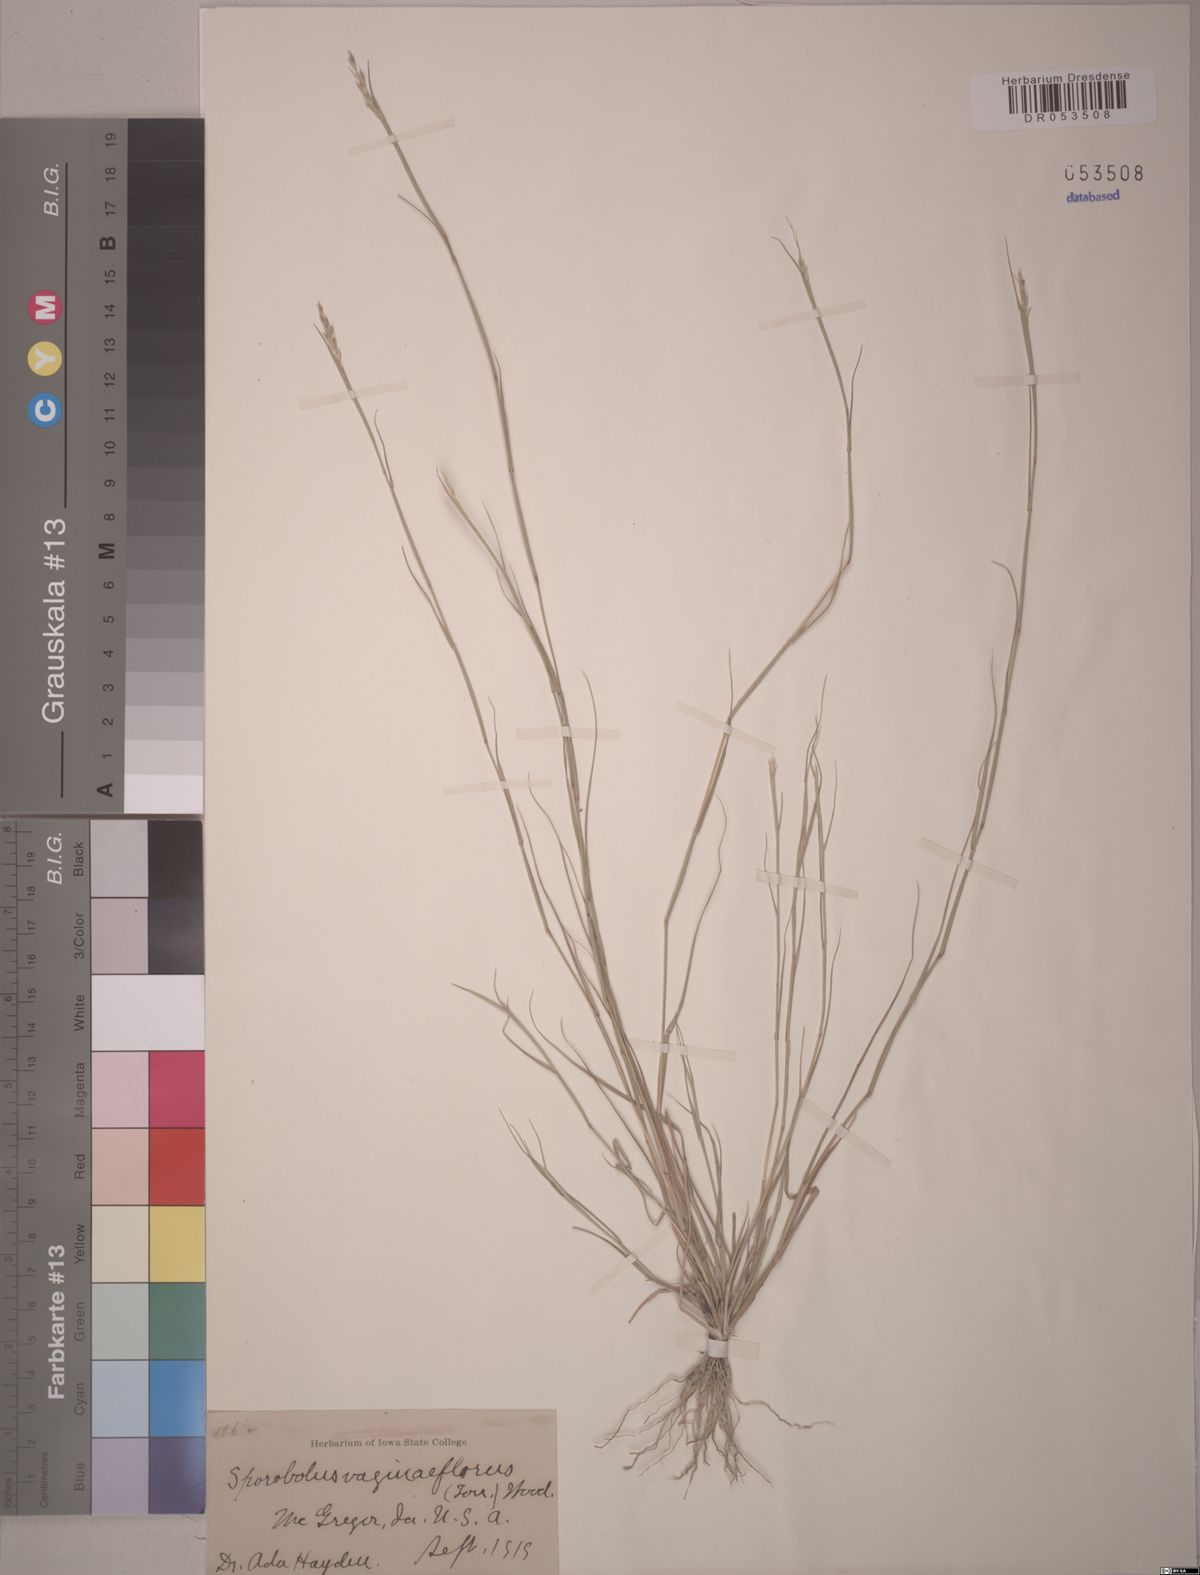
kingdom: Plantae
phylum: Tracheophyta
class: Liliopsida
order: Poales
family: Poaceae
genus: Sporobolus
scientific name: Sporobolus vaginiflorus
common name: Poverty dropseed
